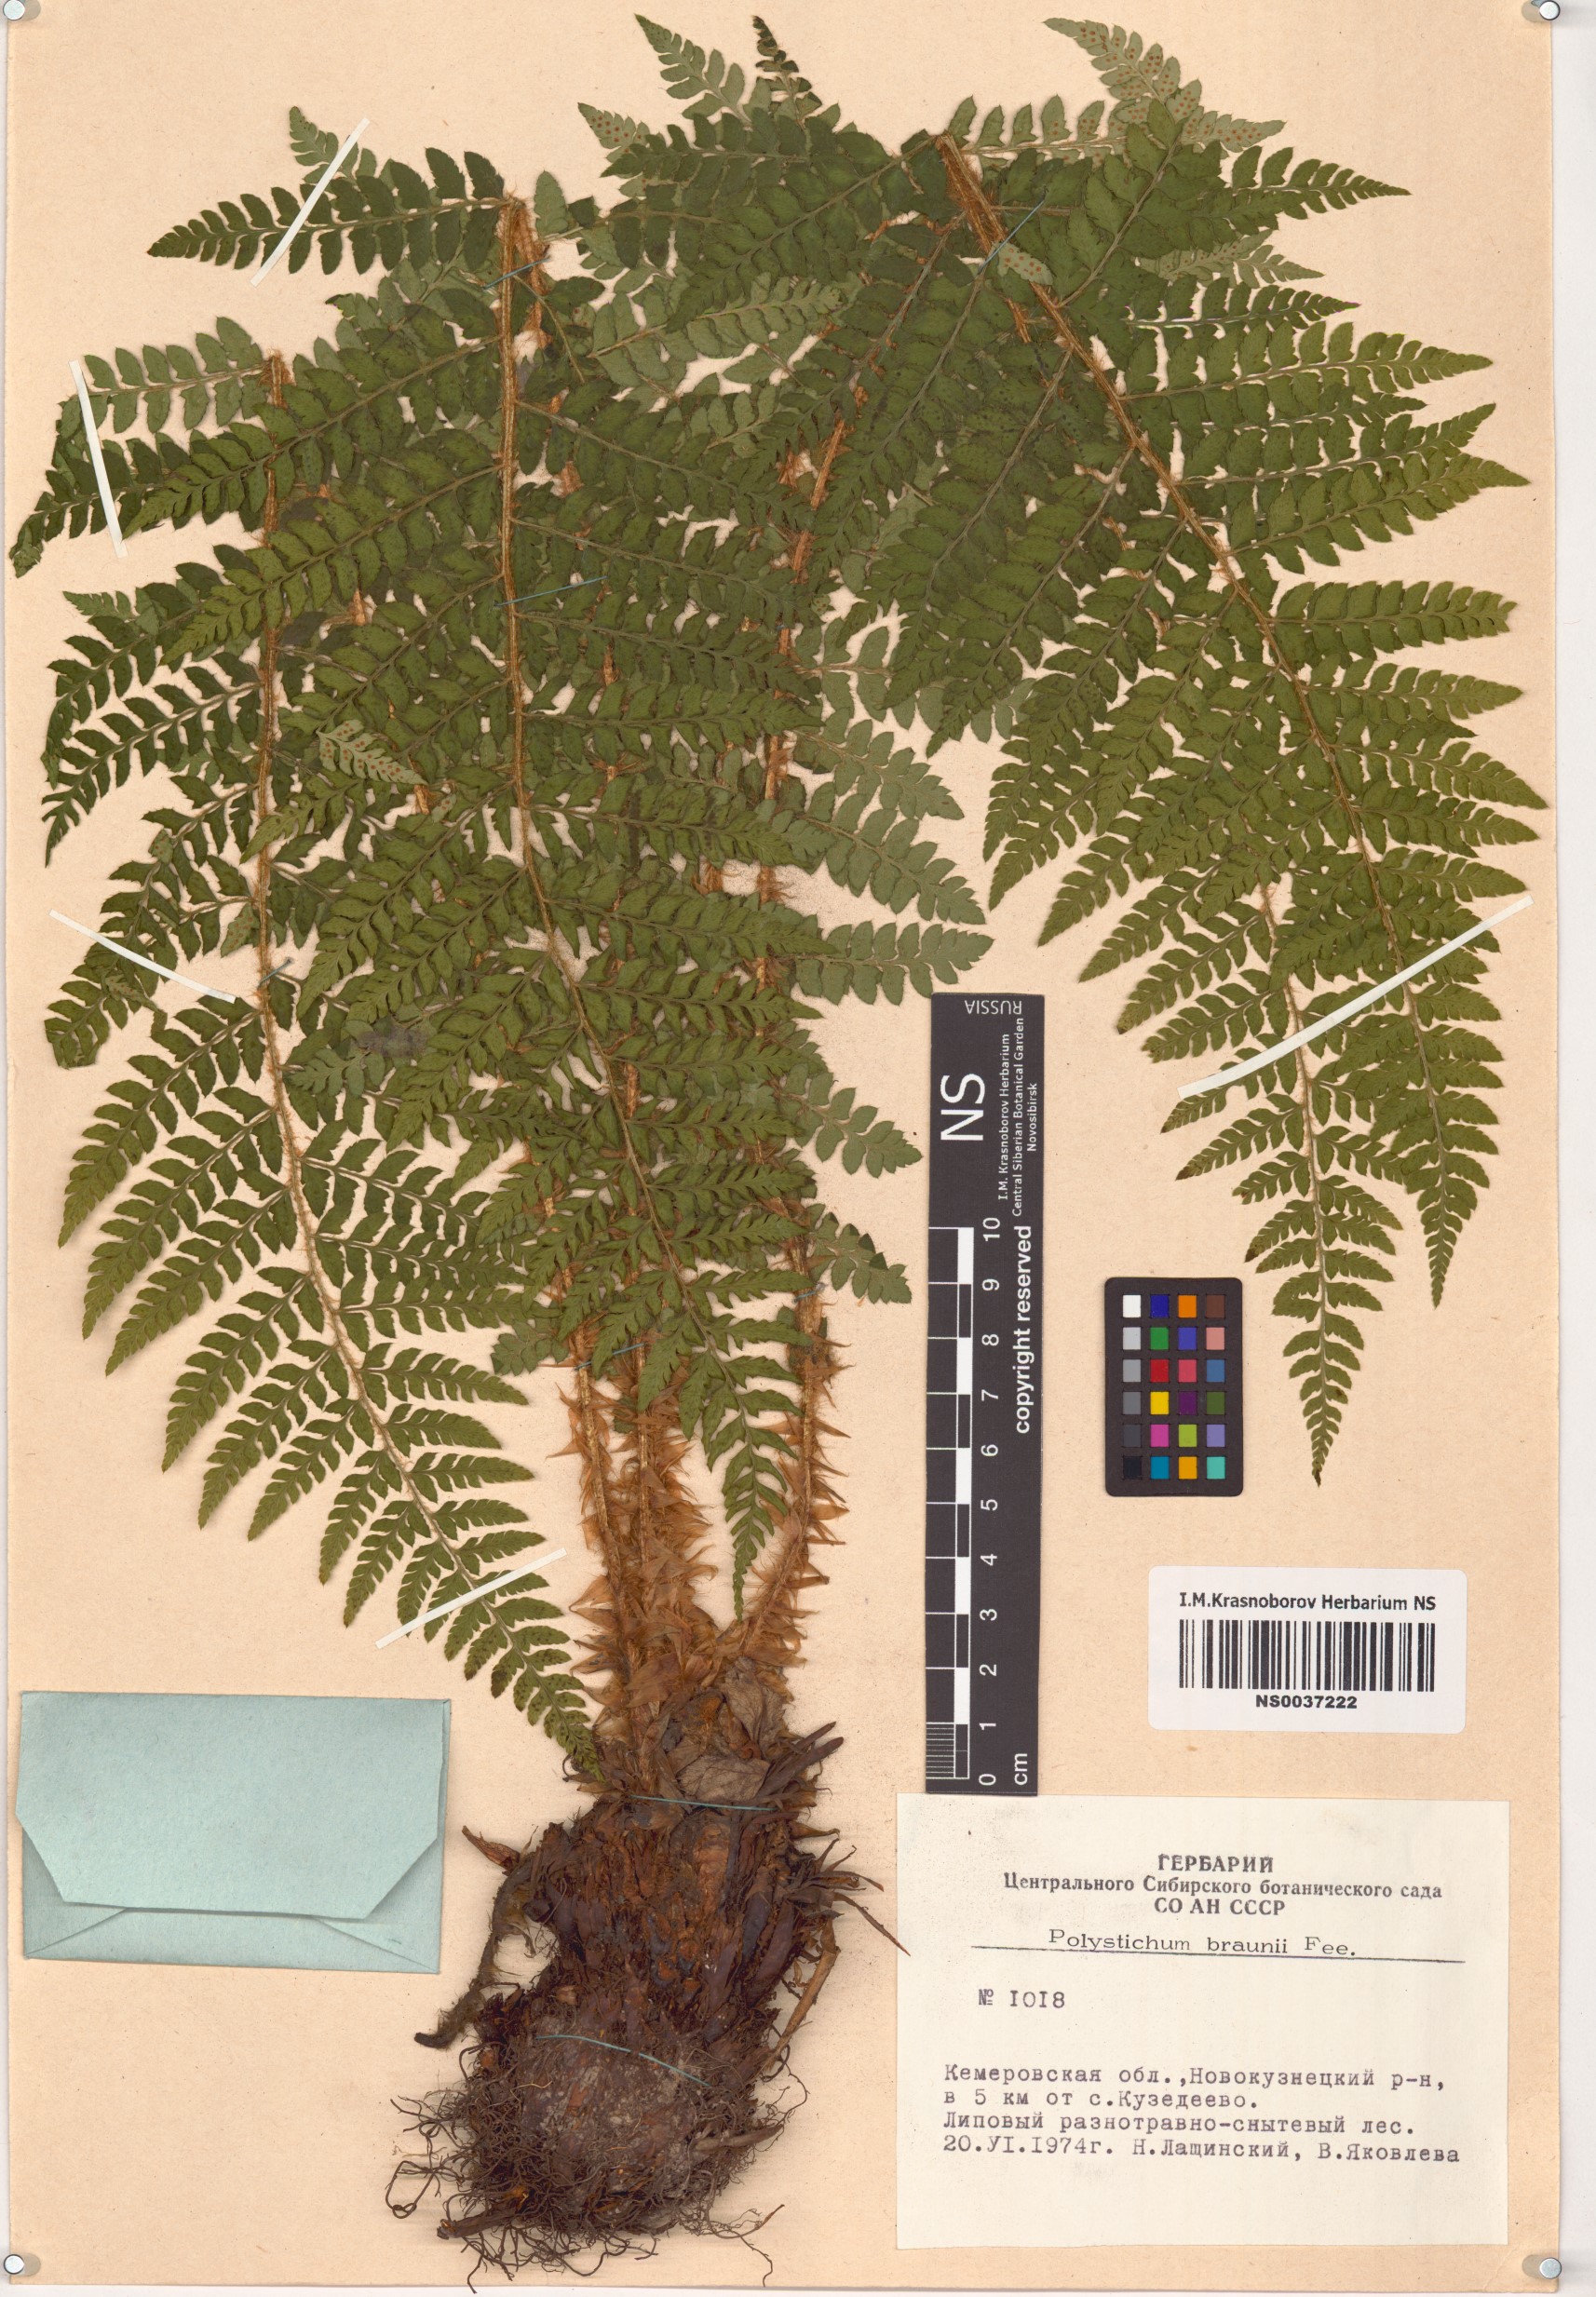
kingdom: Plantae
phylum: Tracheophyta
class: Polypodiopsida
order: Polypodiales
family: Dryopteridaceae
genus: Polystichum
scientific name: Polystichum braunii
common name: Braun's holly fern
